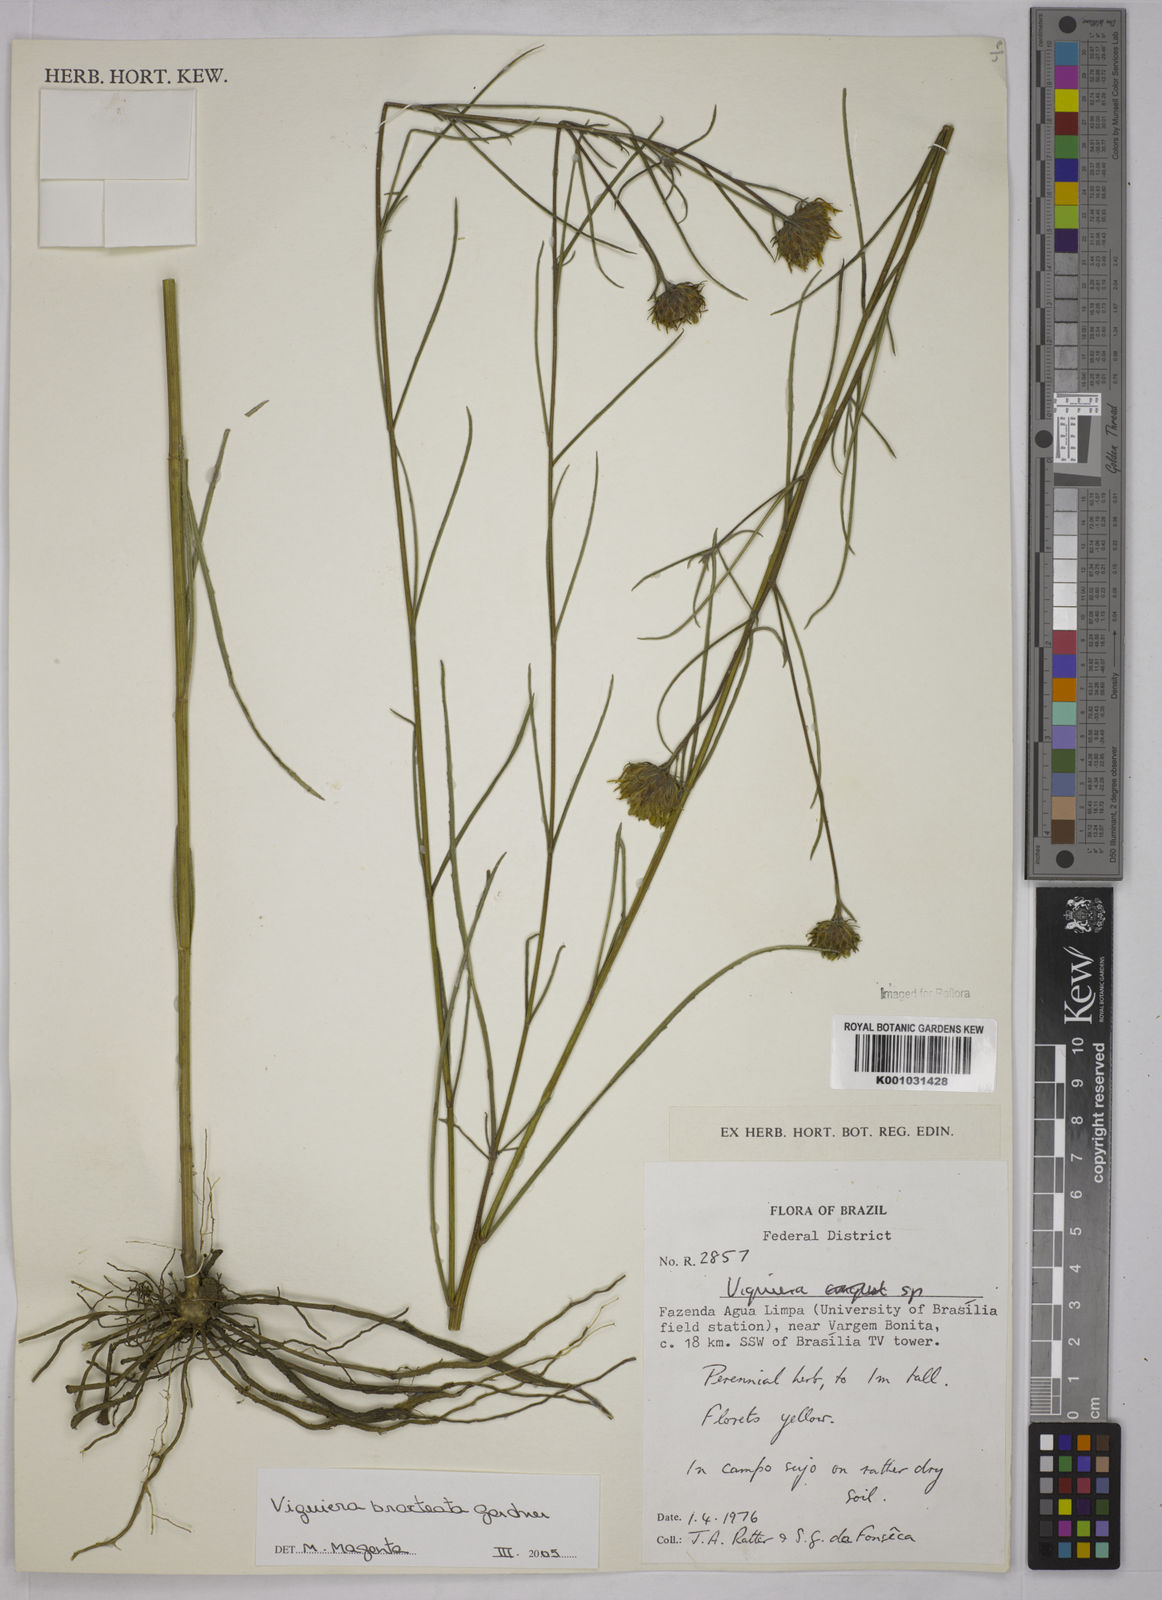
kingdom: Plantae
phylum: Tracheophyta
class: Magnoliopsida
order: Asterales
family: Asteraceae
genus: Aldama
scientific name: Aldama bracteata
